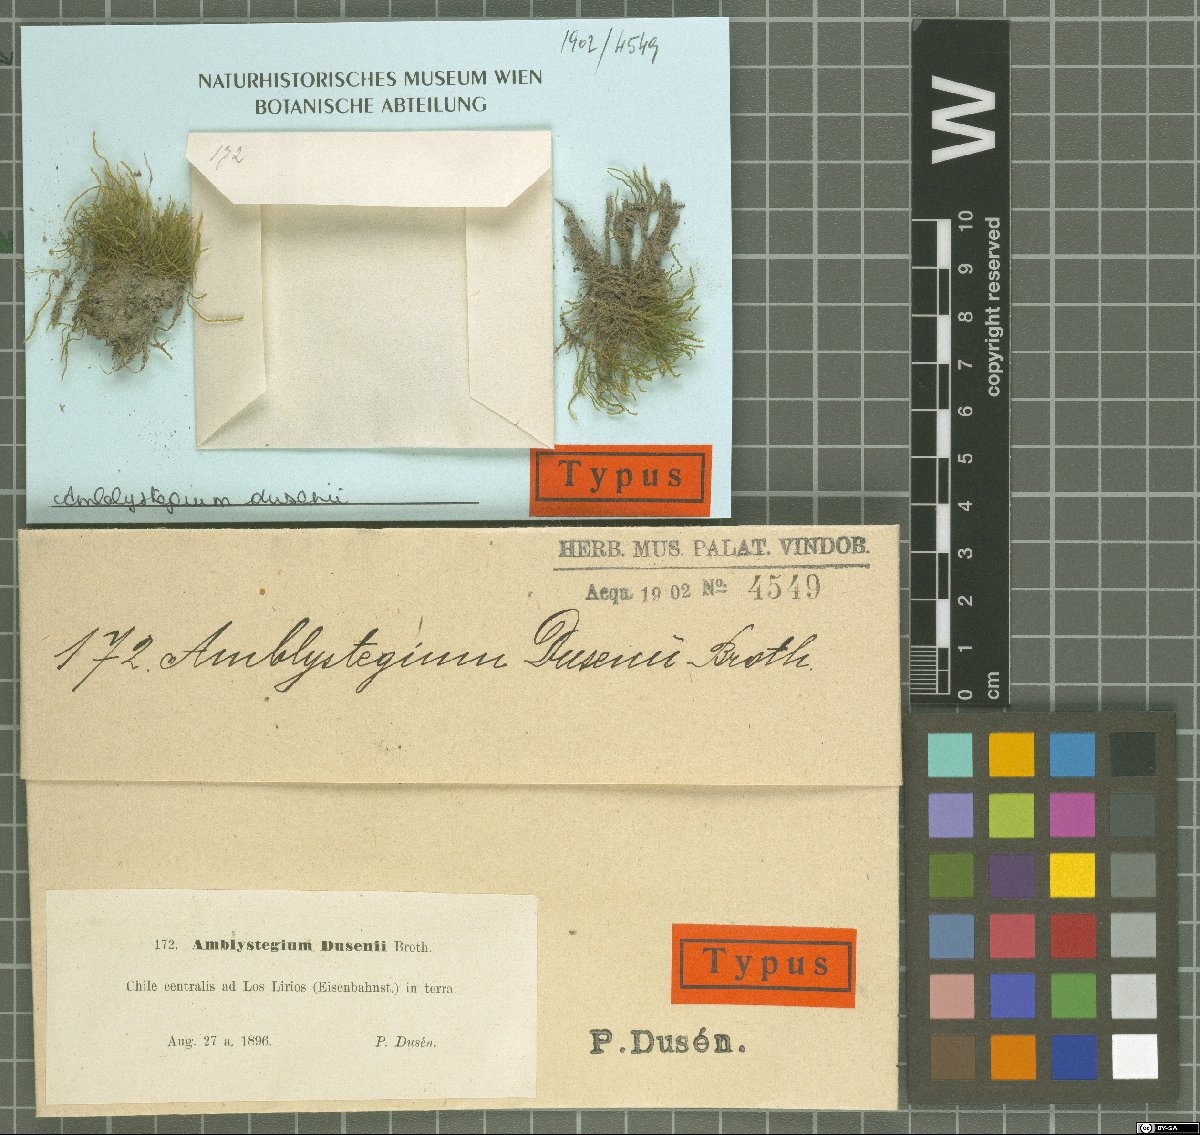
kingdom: Plantae
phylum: Bryophyta
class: Bryopsida
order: Hypnales
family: Amblystegiaceae
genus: Amblystegium
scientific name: Amblystegium
